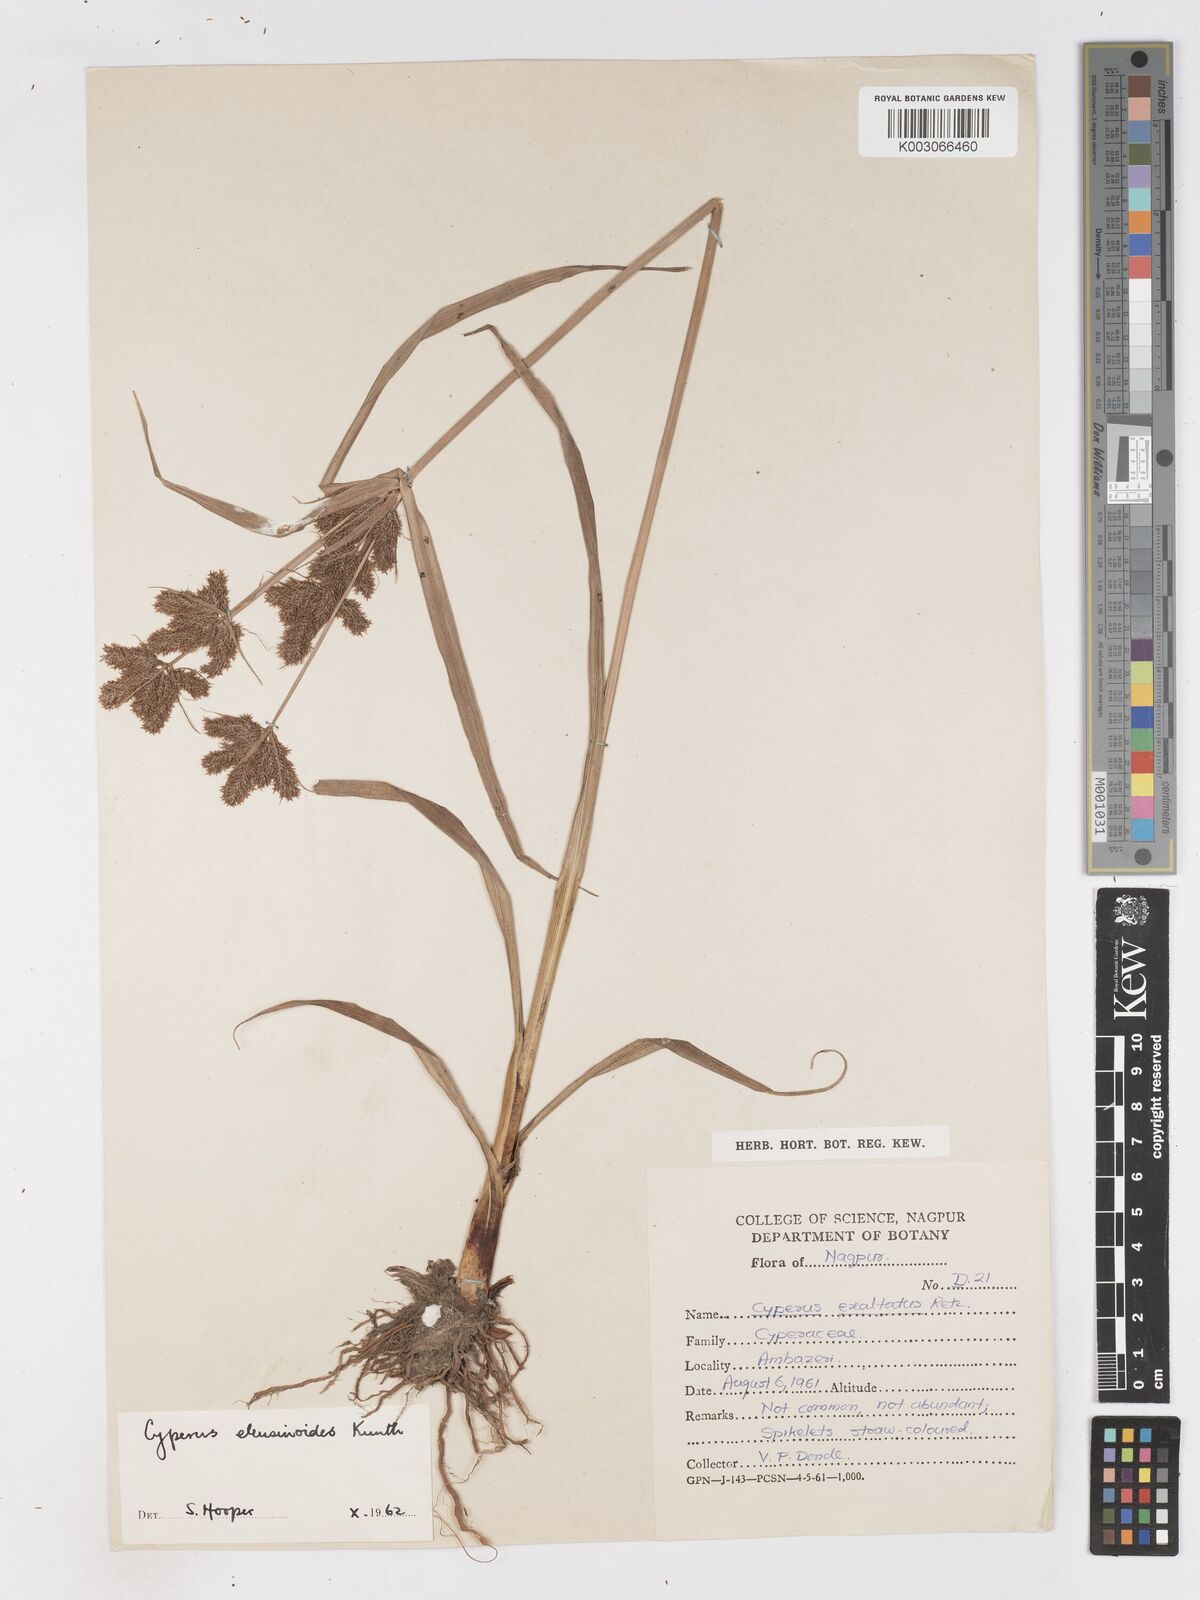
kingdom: Plantae
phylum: Tracheophyta
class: Liliopsida
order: Poales
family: Cyperaceae
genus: Cyperus
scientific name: Cyperus nutans
